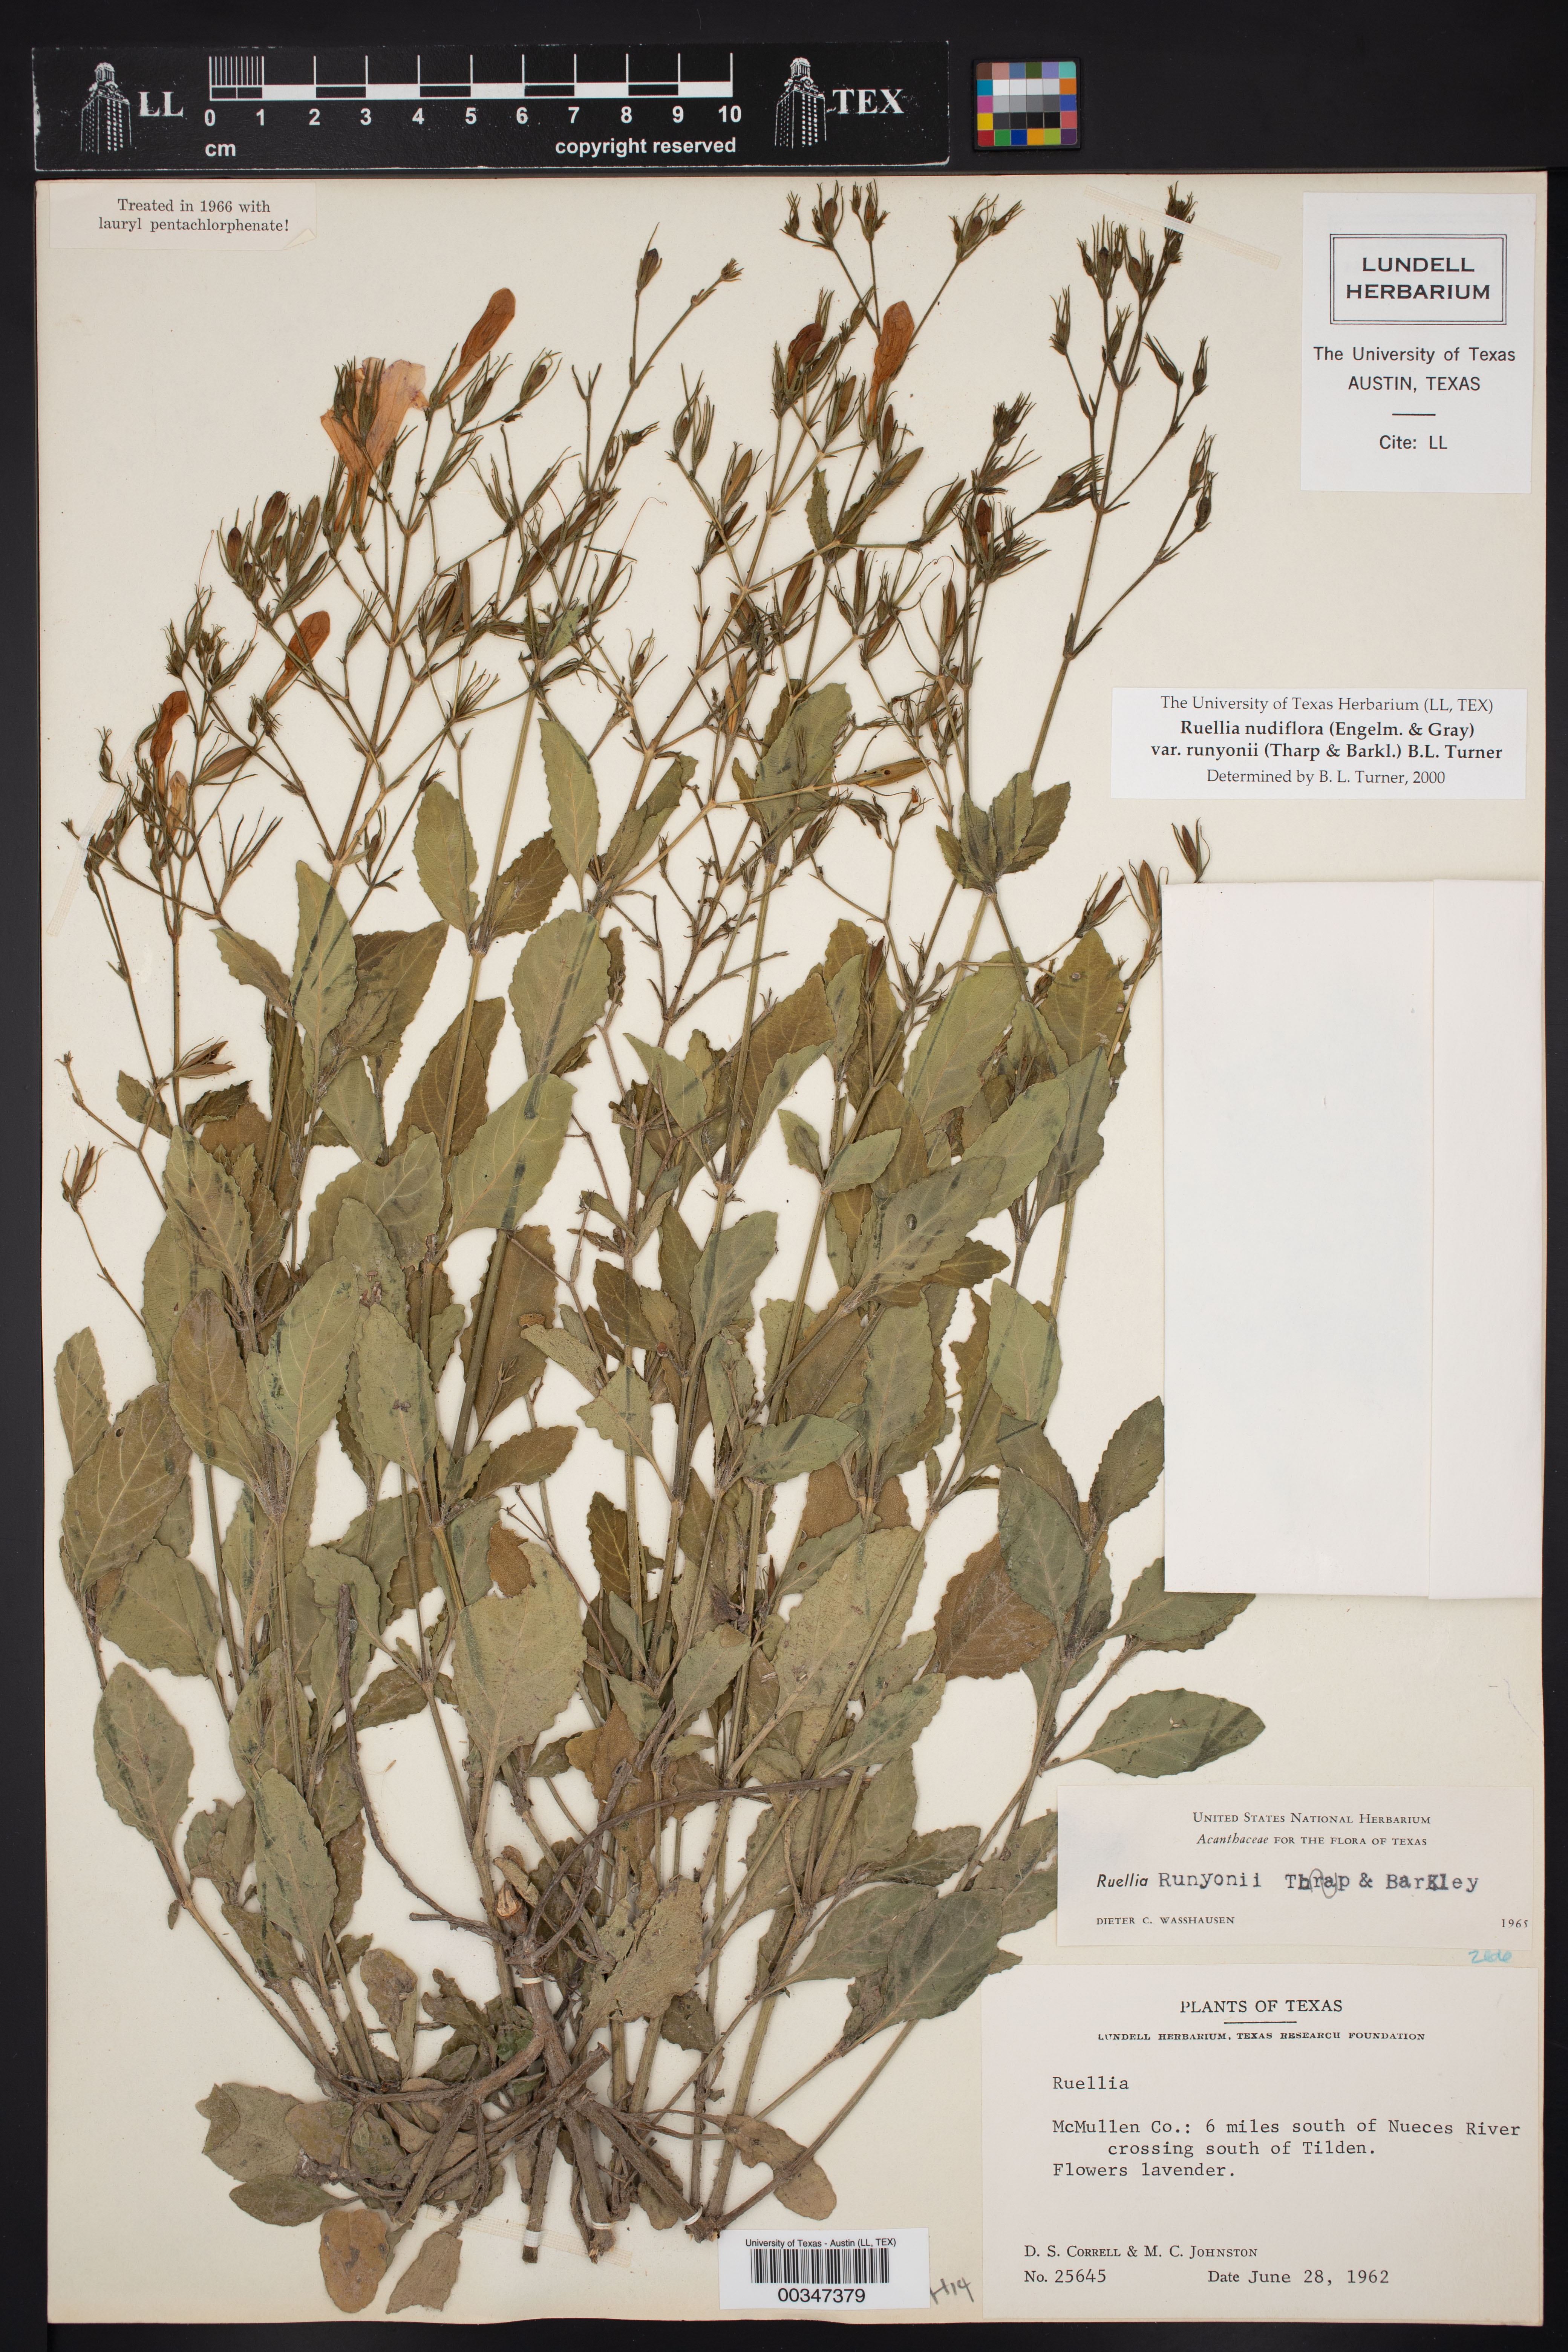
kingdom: Plantae
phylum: Tracheophyta
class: Magnoliopsida
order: Lamiales
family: Acanthaceae
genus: Ruellia
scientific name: Ruellia ciliatiflora
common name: Hairyflower wild petunia
